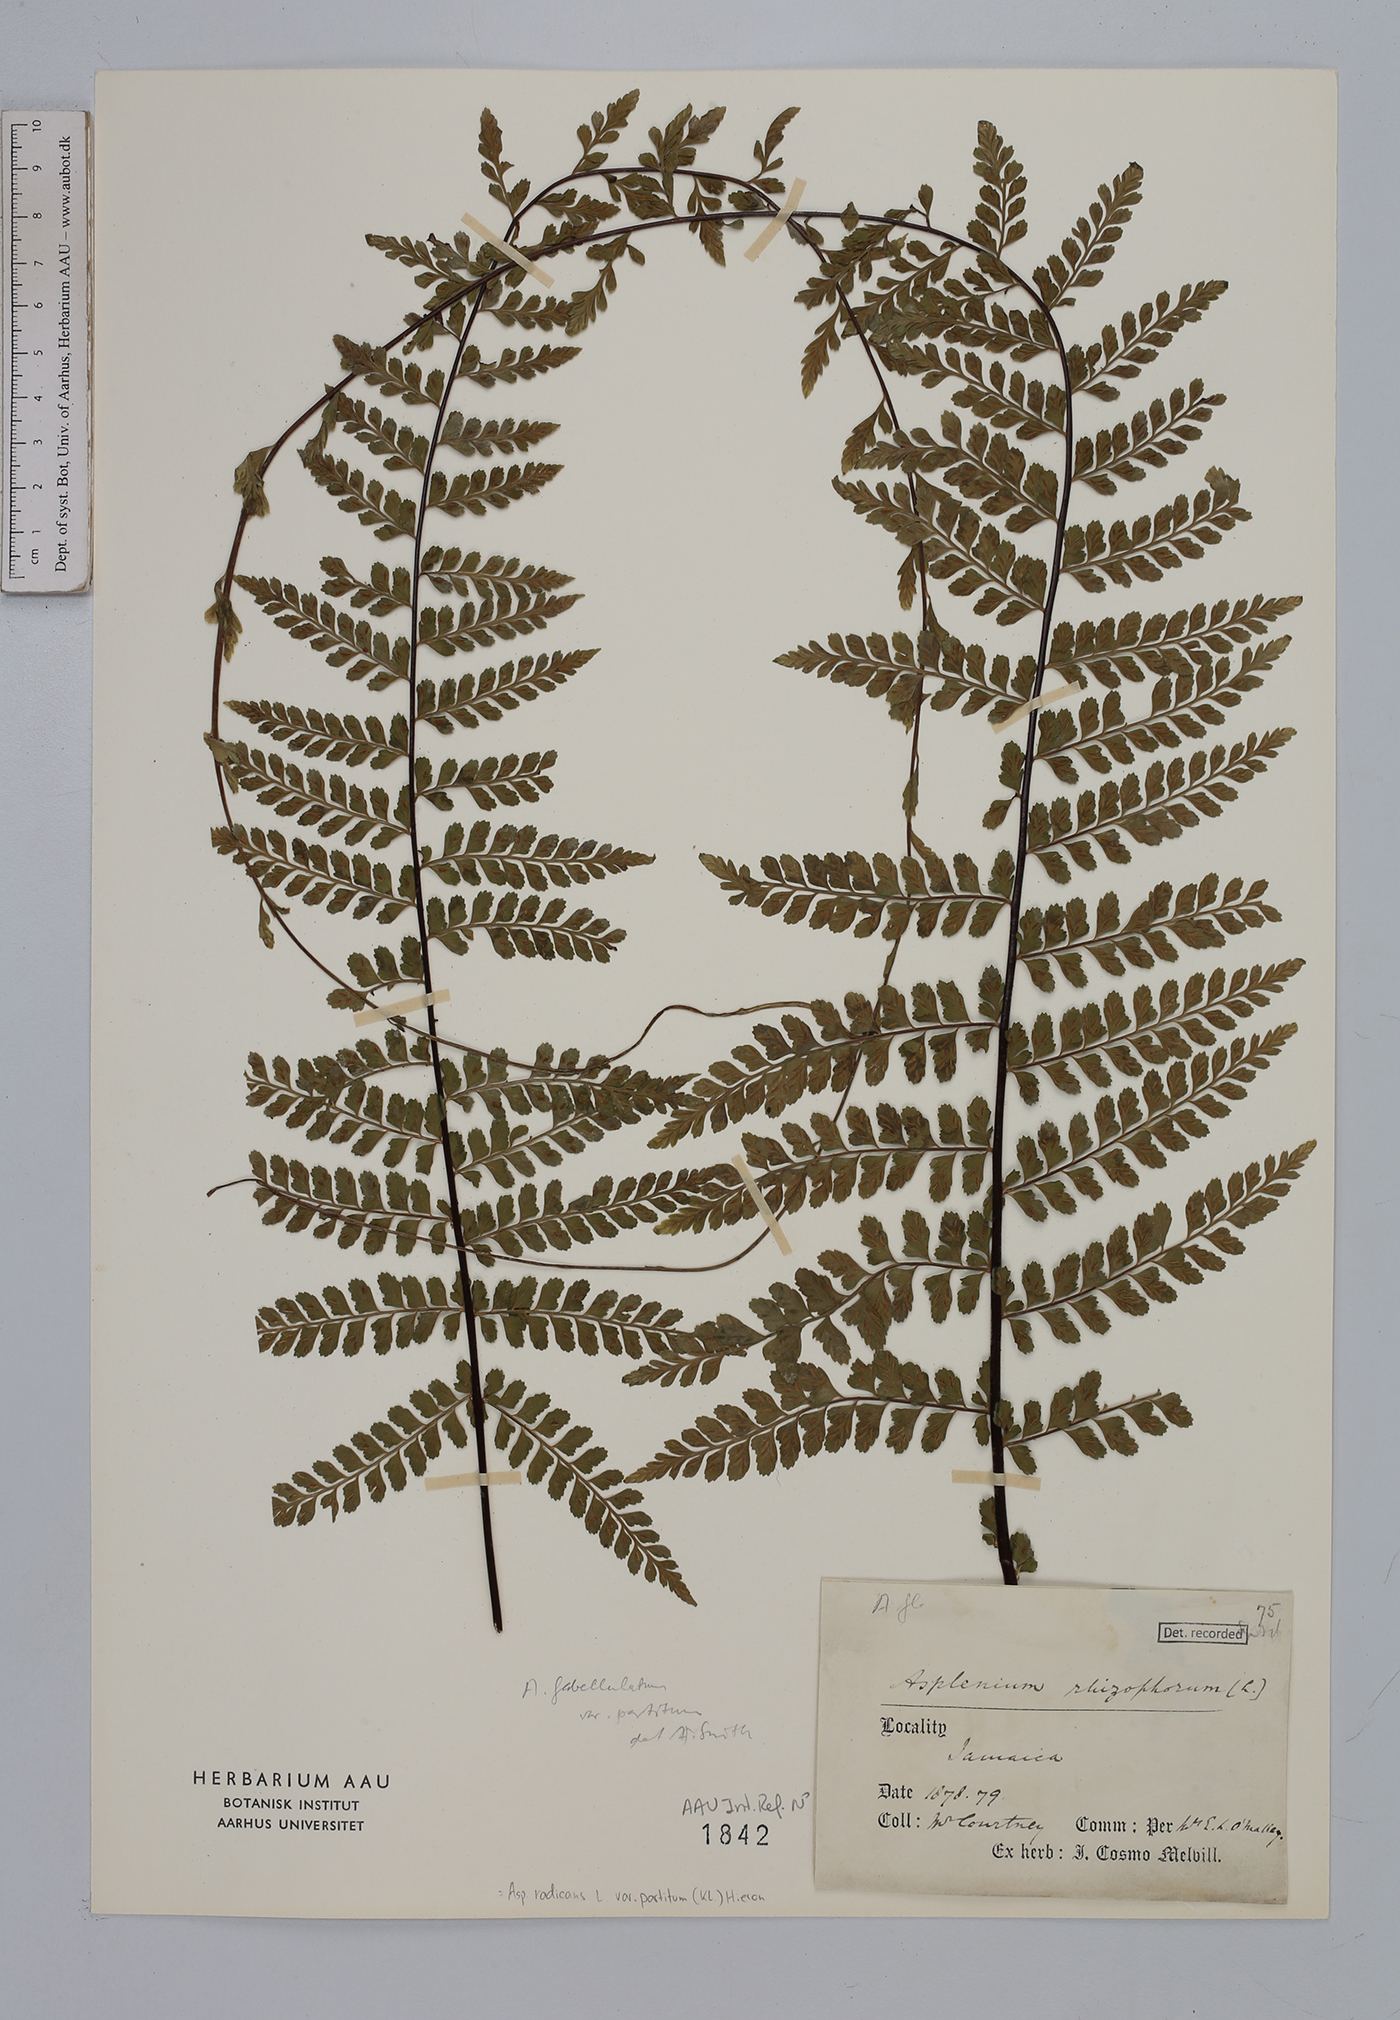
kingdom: Plantae
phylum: Tracheophyta
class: Polypodiopsida
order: Polypodiales
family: Aspleniaceae
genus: Asplenium
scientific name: Asplenium flabellulatum
